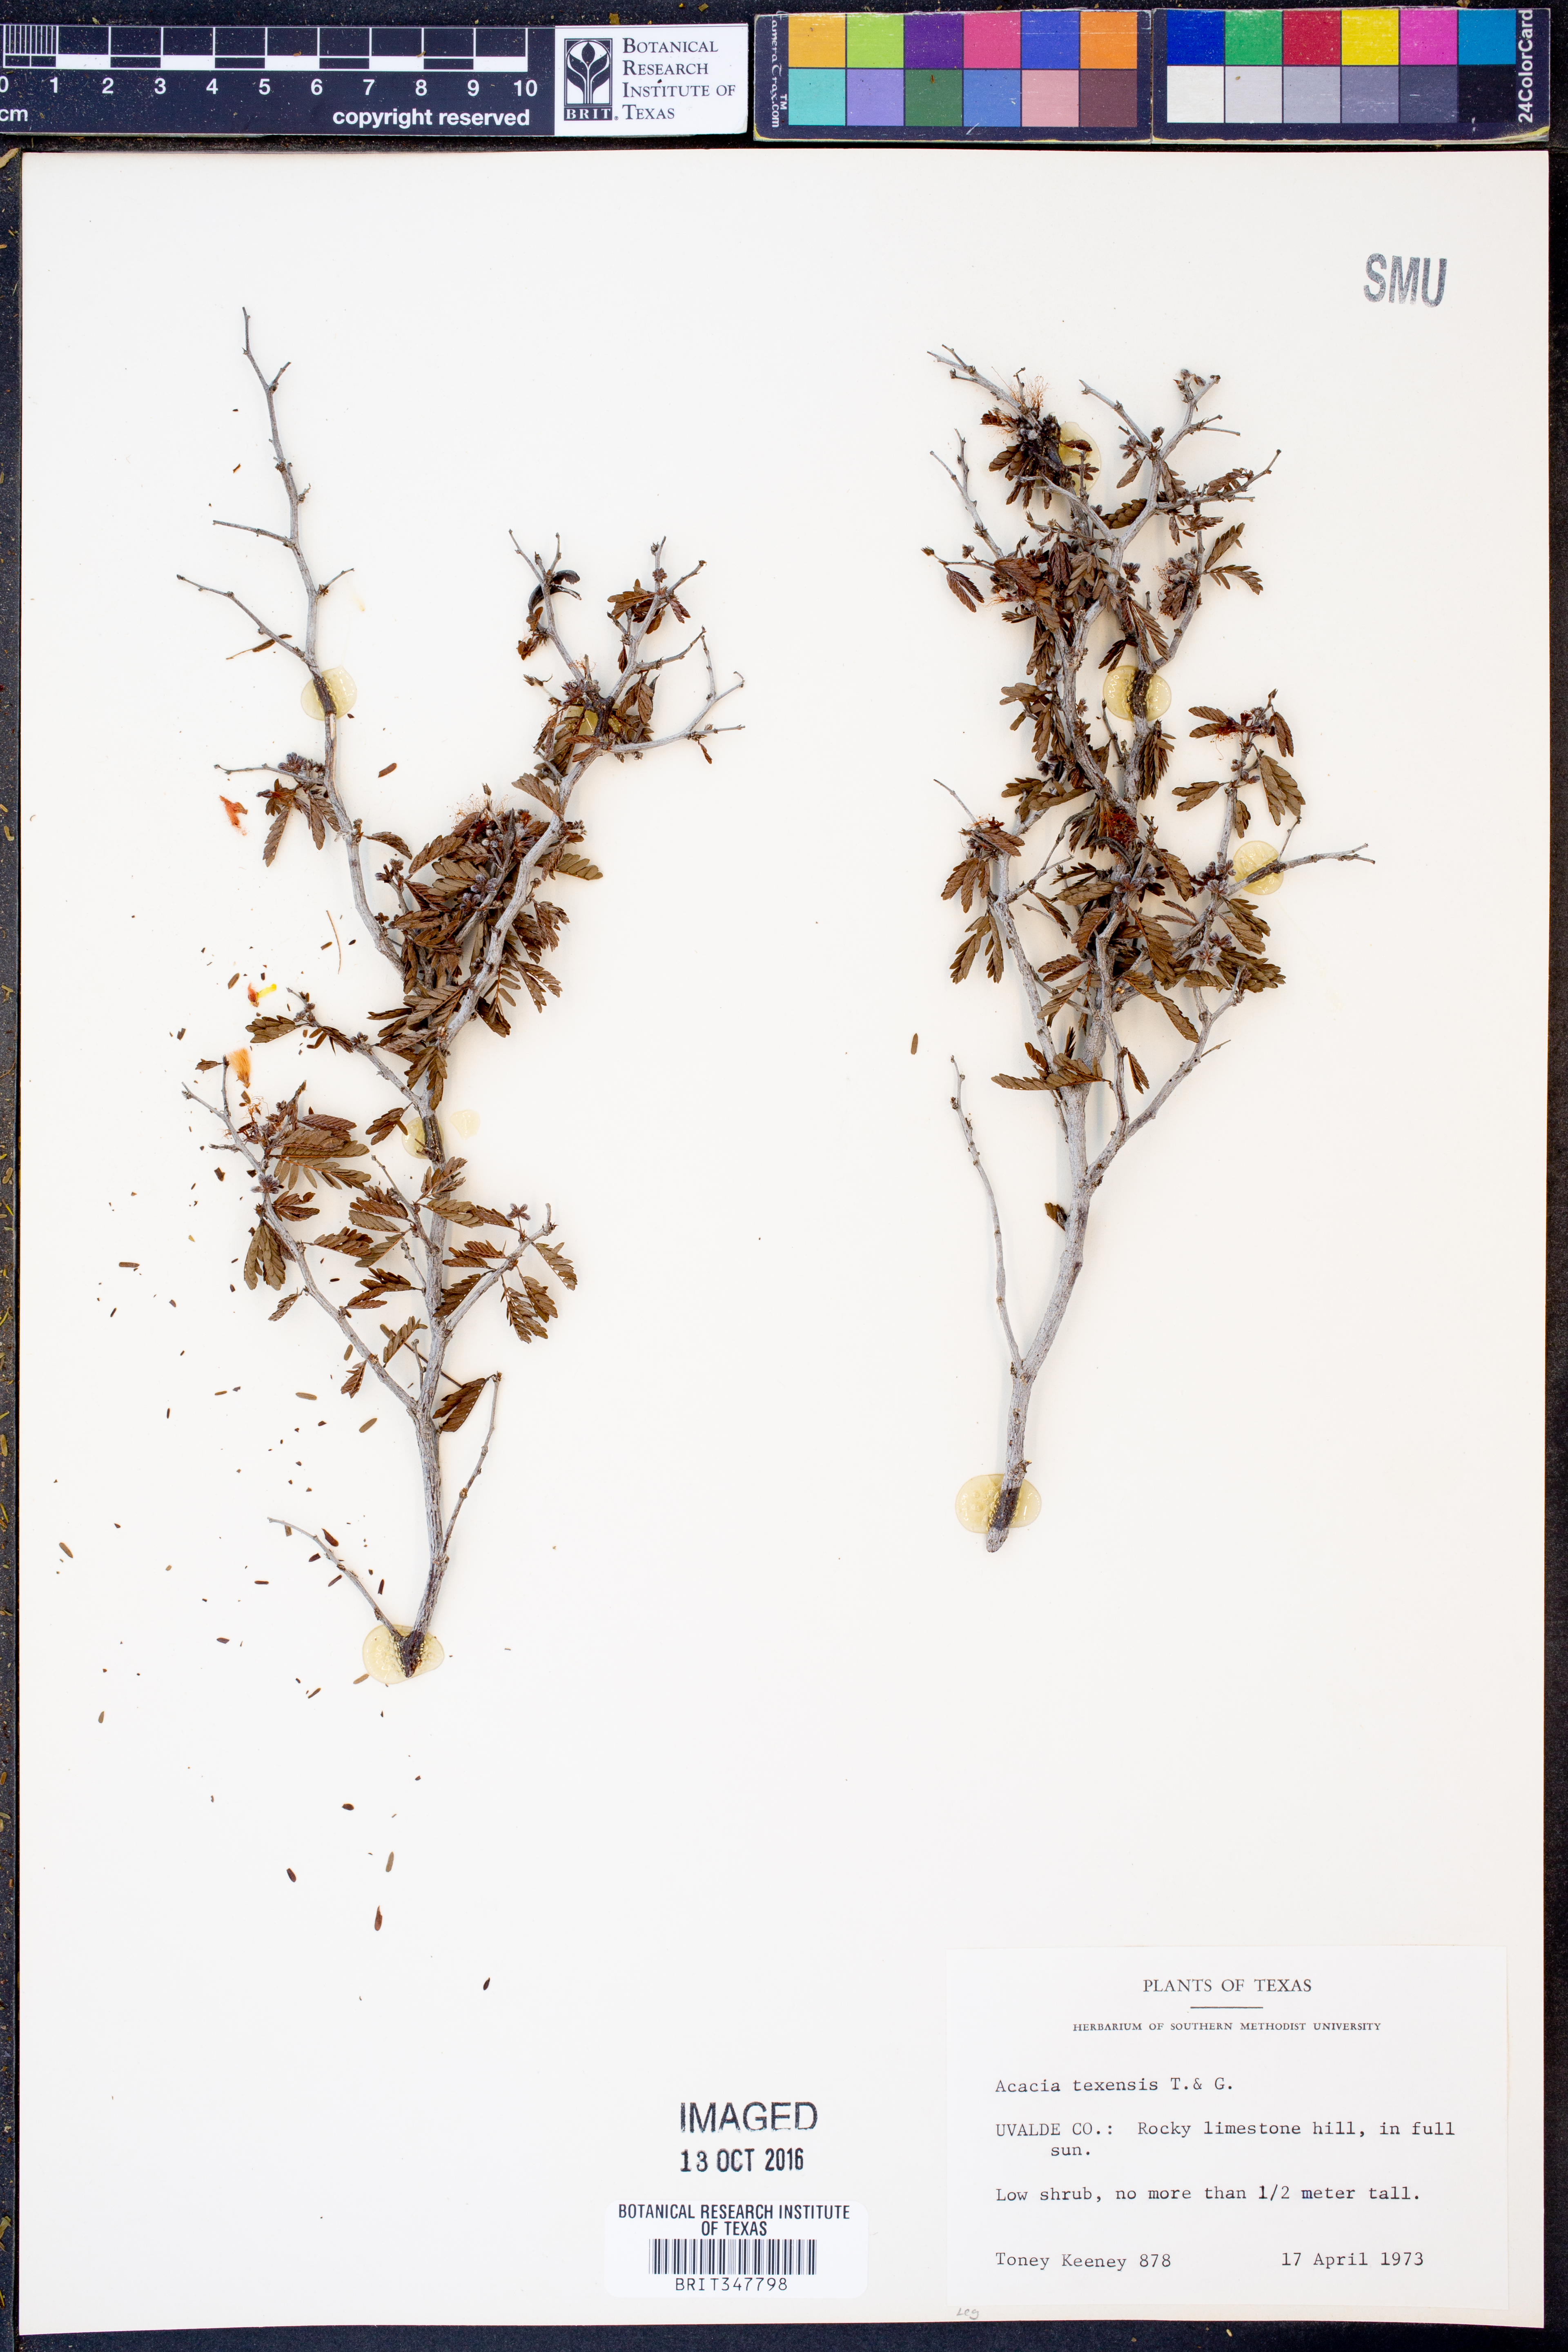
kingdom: Plantae
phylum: Tracheophyta
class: Magnoliopsida
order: Fabales
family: Fabaceae
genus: Acaciella
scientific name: Acaciella angustissima
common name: Prairie acacia
